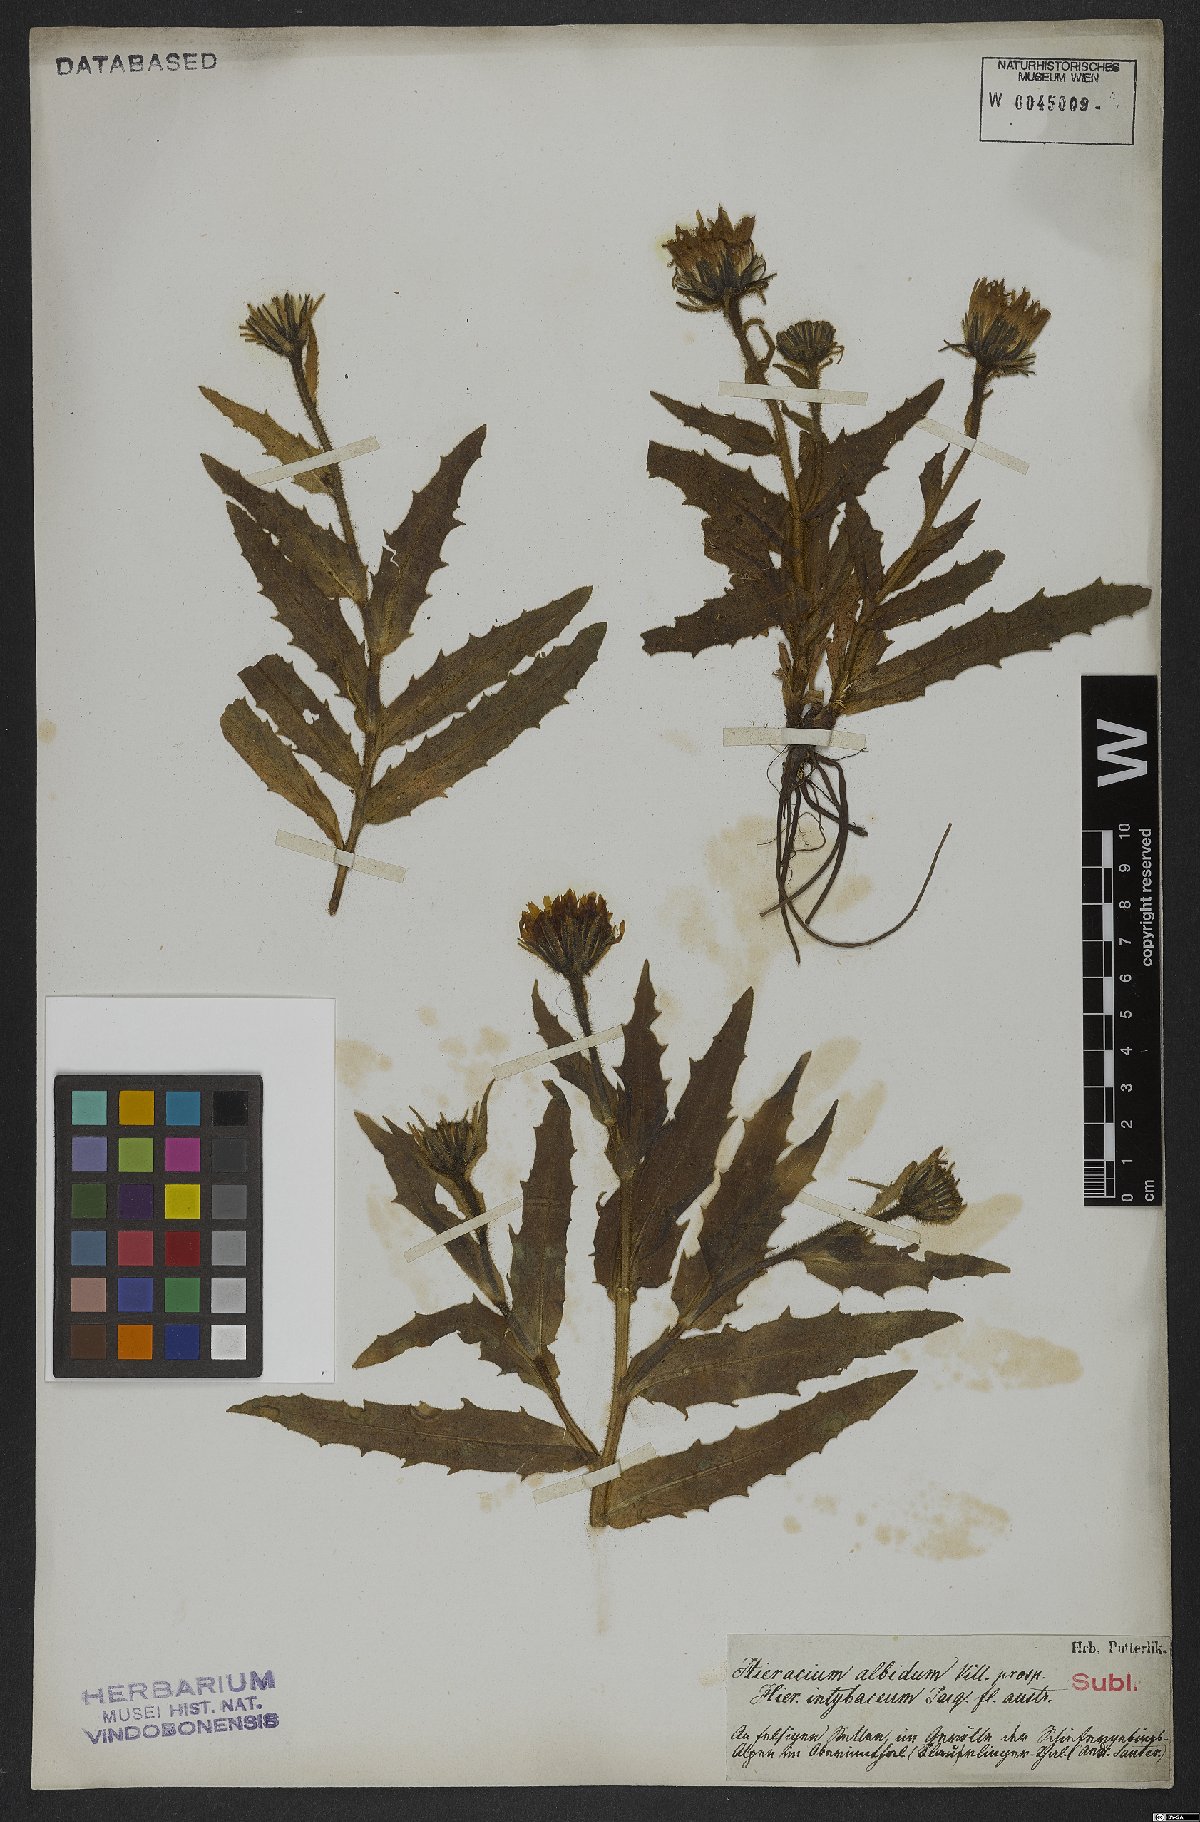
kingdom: Plantae
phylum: Tracheophyta
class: Magnoliopsida
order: Asterales
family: Asteraceae
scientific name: Asteraceae
